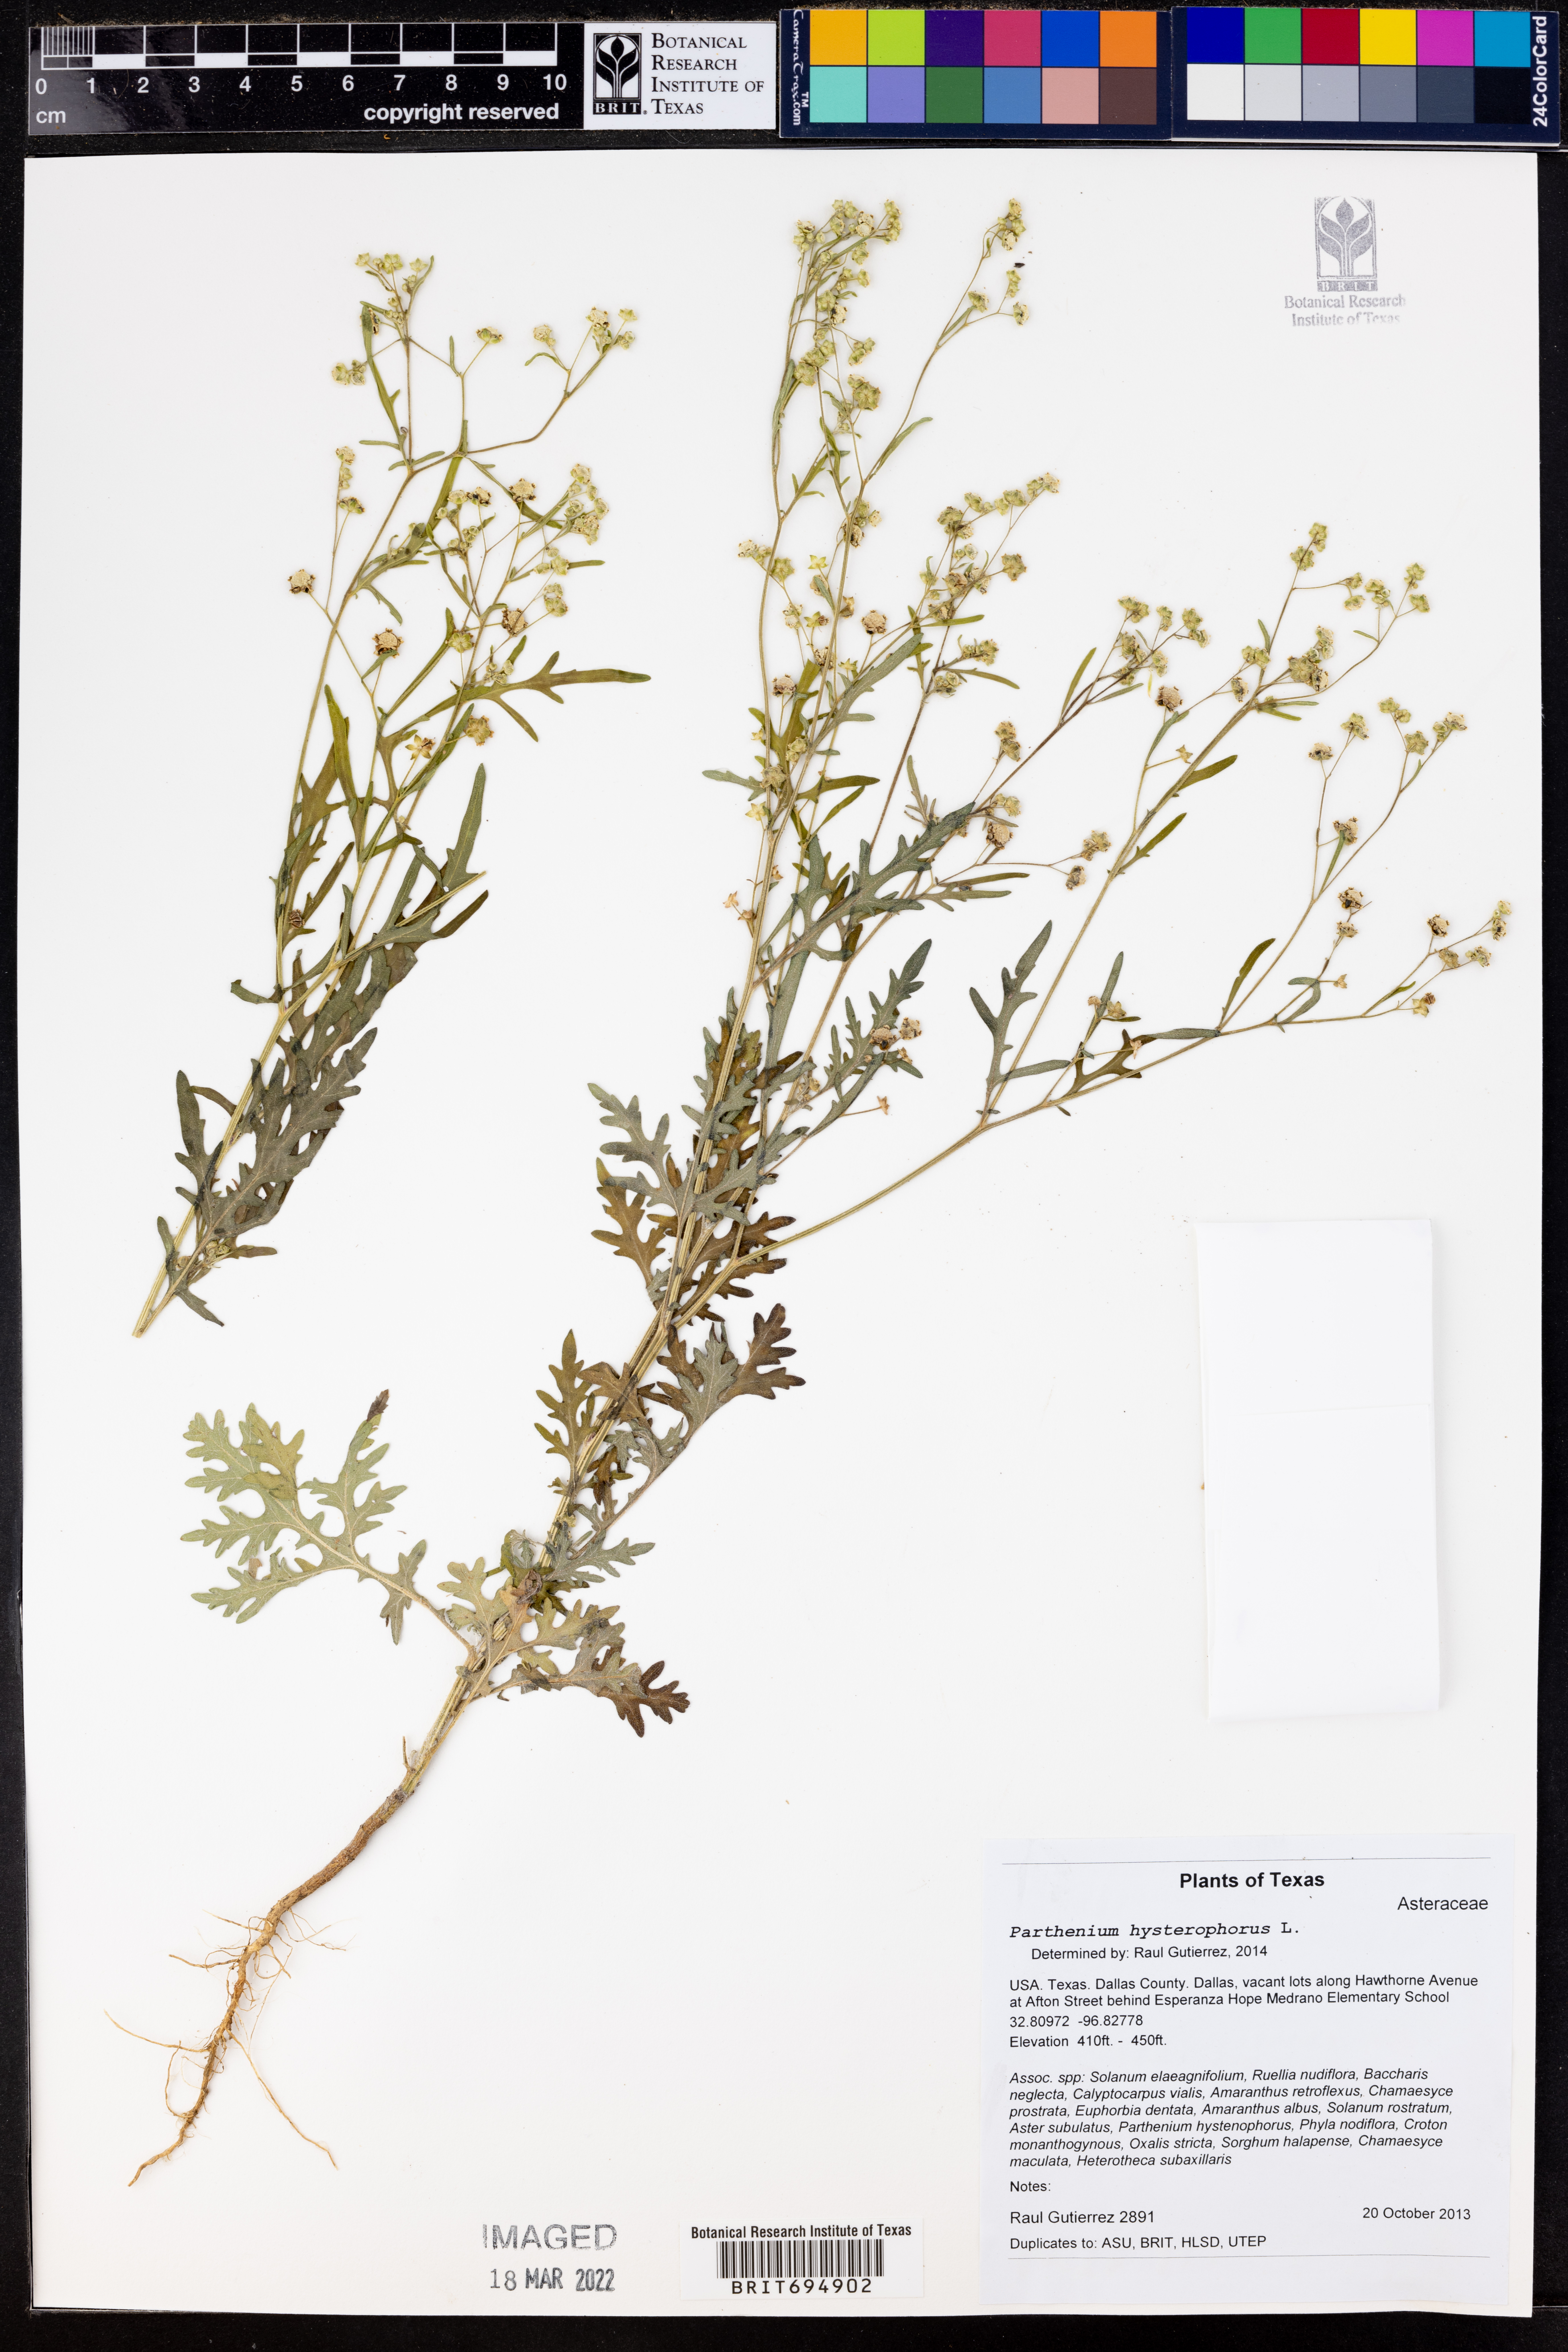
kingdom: Plantae
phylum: Tracheophyta
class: Magnoliopsida
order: Asterales
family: Asteraceae
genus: Parthenium
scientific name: Parthenium hysterophorus
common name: Santa maria feverfew
